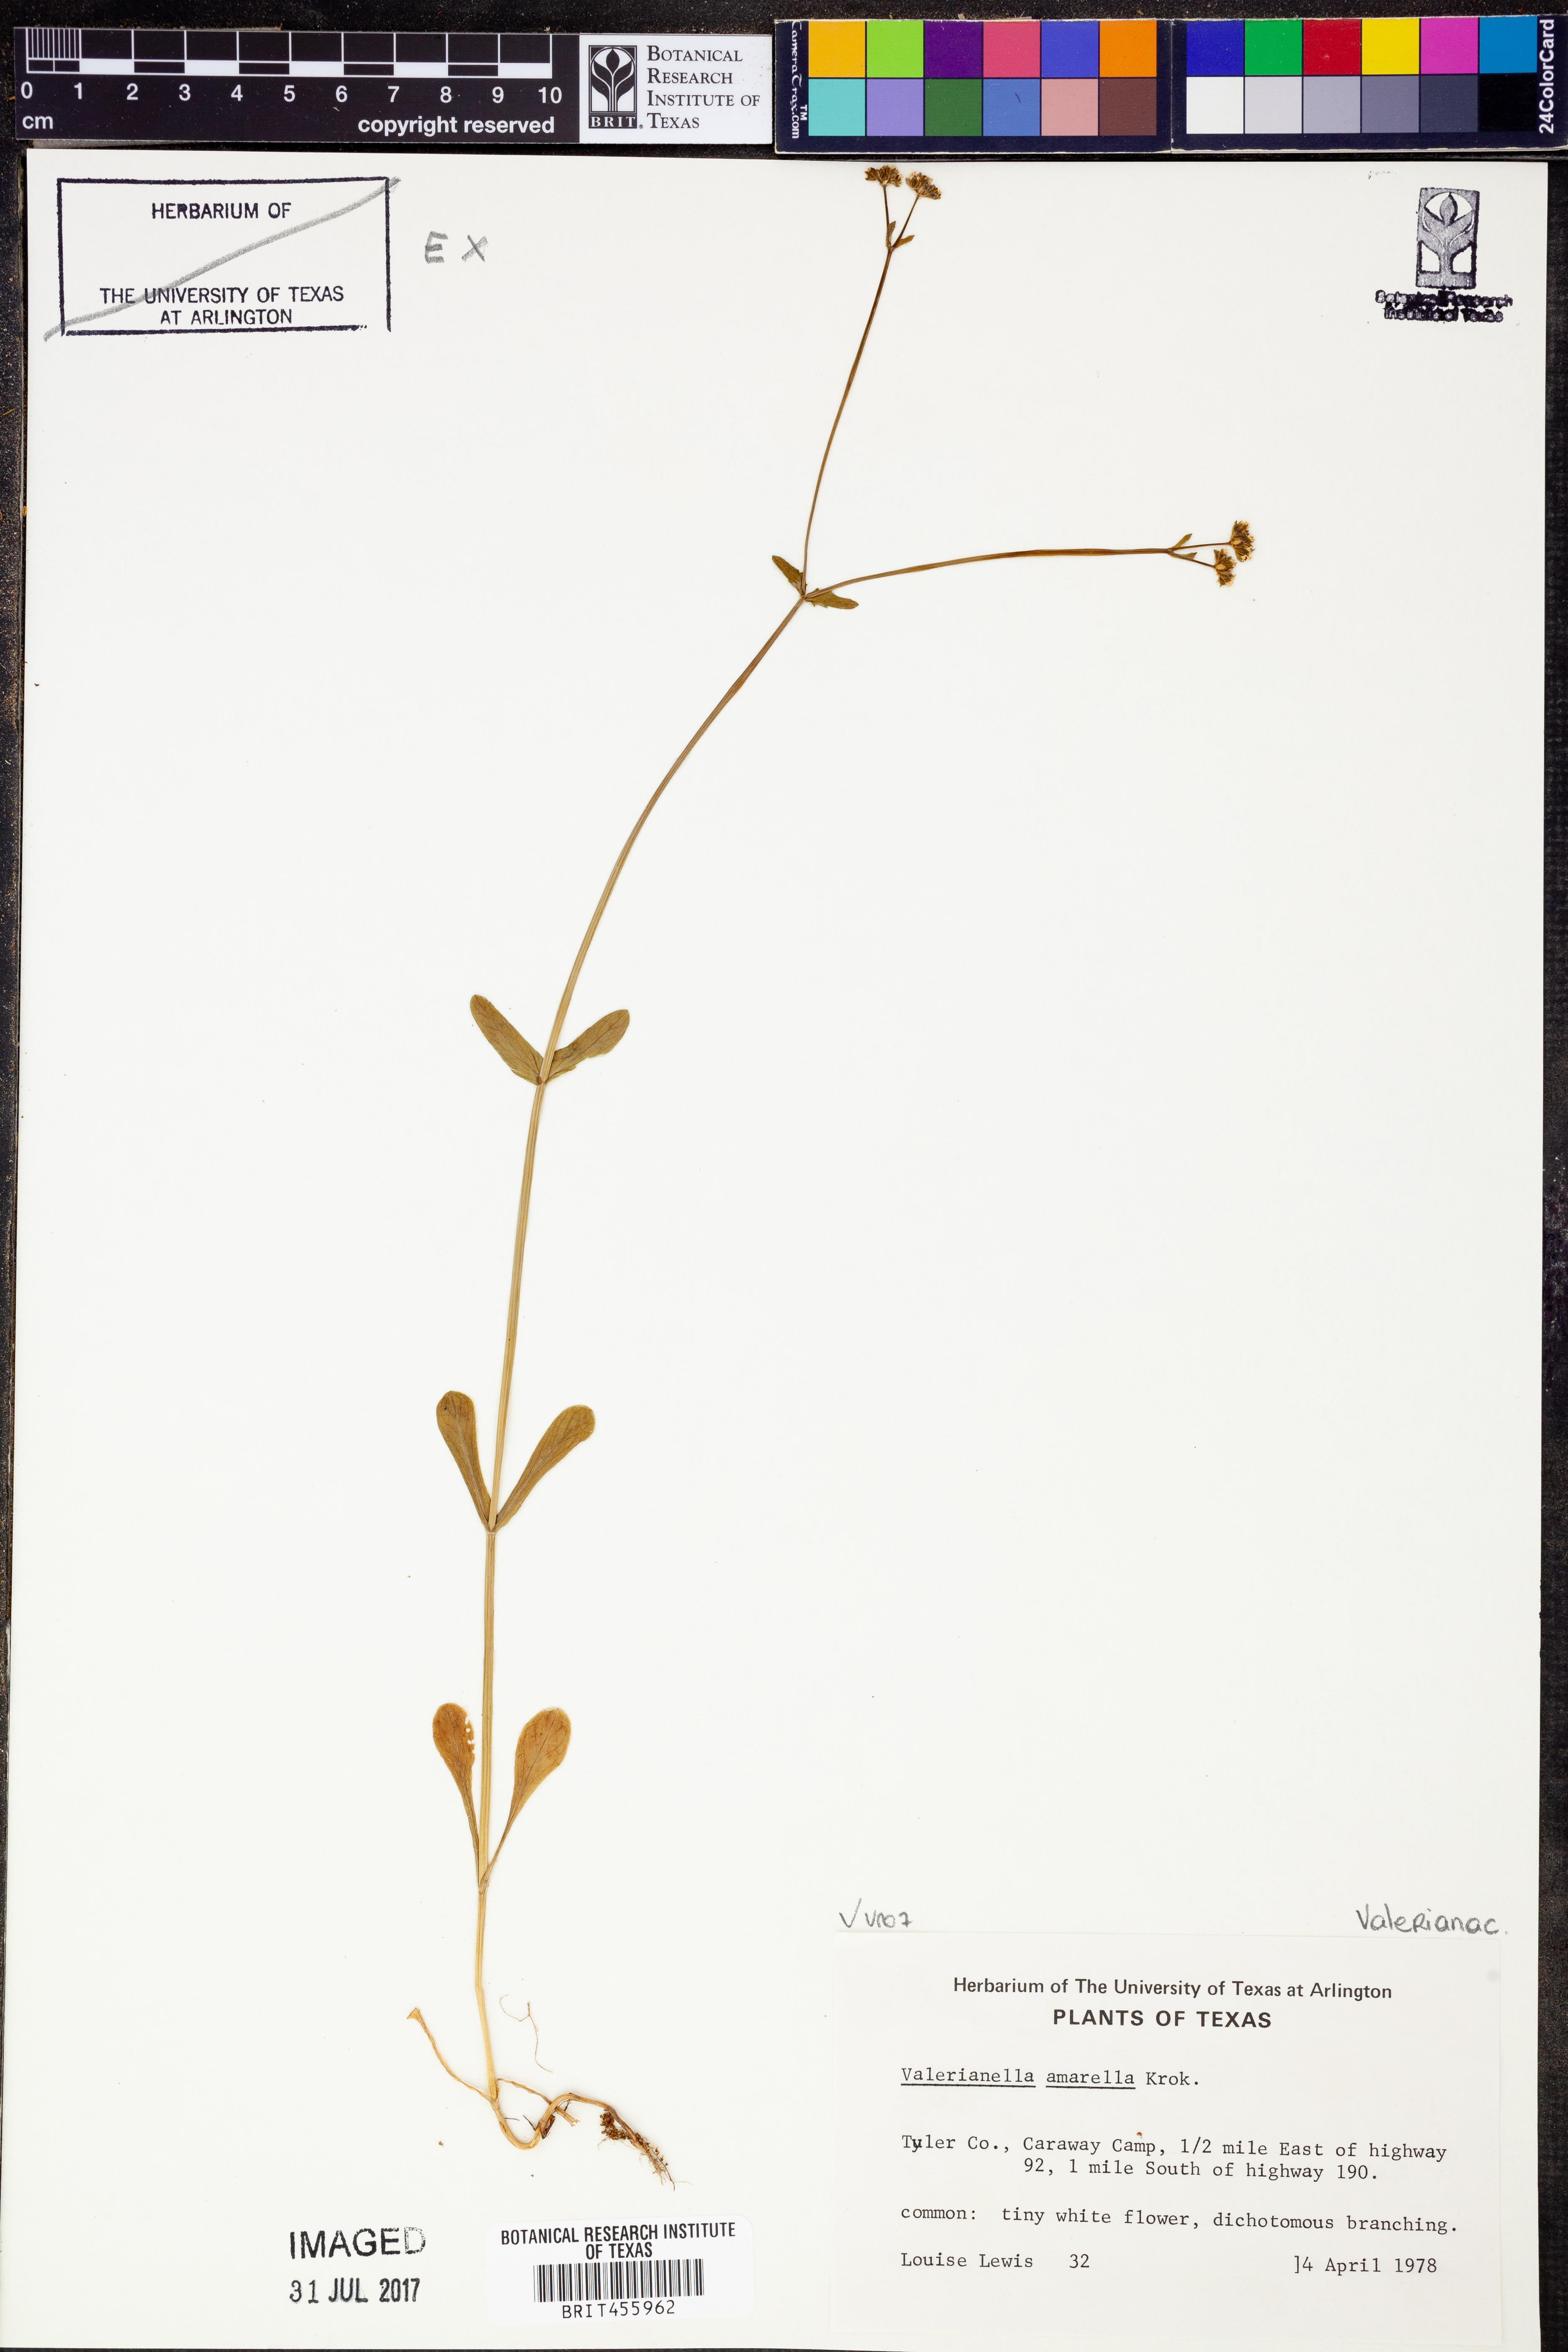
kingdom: Plantae
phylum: Tracheophyta
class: Magnoliopsida
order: Dipsacales
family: Caprifoliaceae
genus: Valerianella
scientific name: Valerianella amarella
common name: Hariy cornsalad
